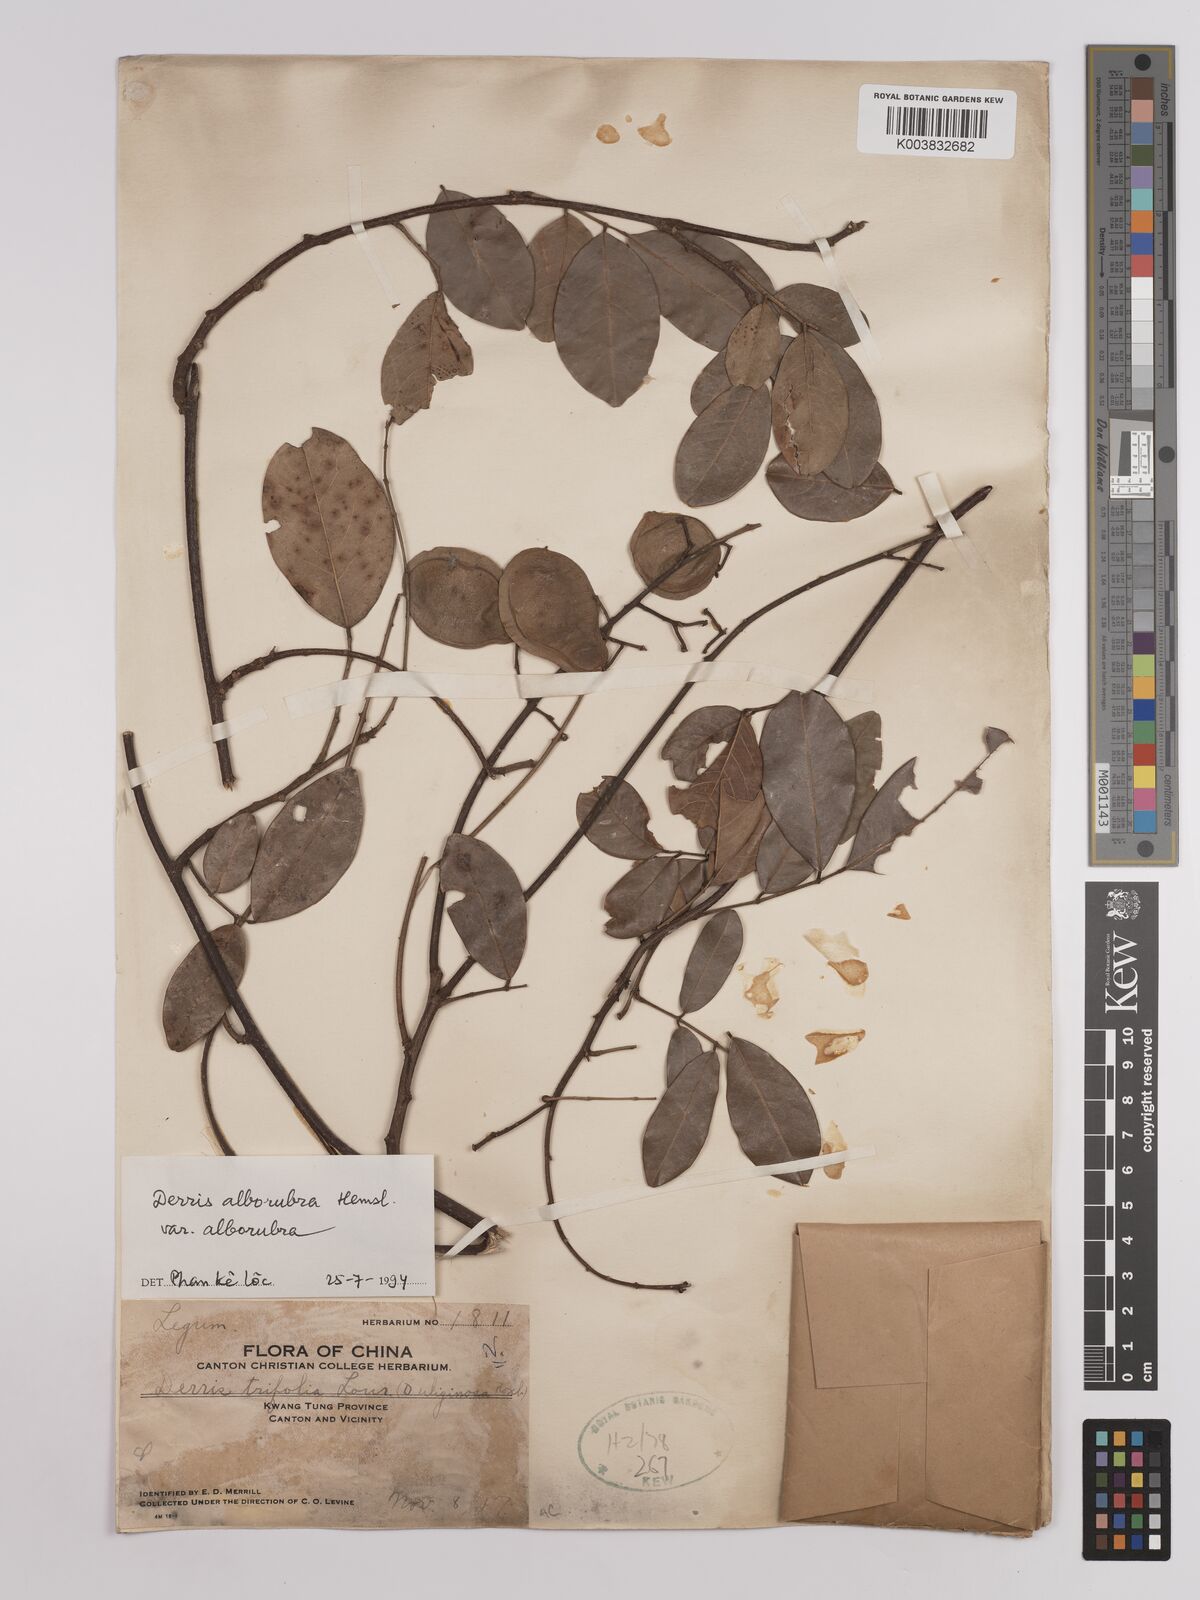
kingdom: Plantae
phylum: Tracheophyta
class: Magnoliopsida
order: Fabales
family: Fabaceae
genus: Derris
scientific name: Derris alborubra
